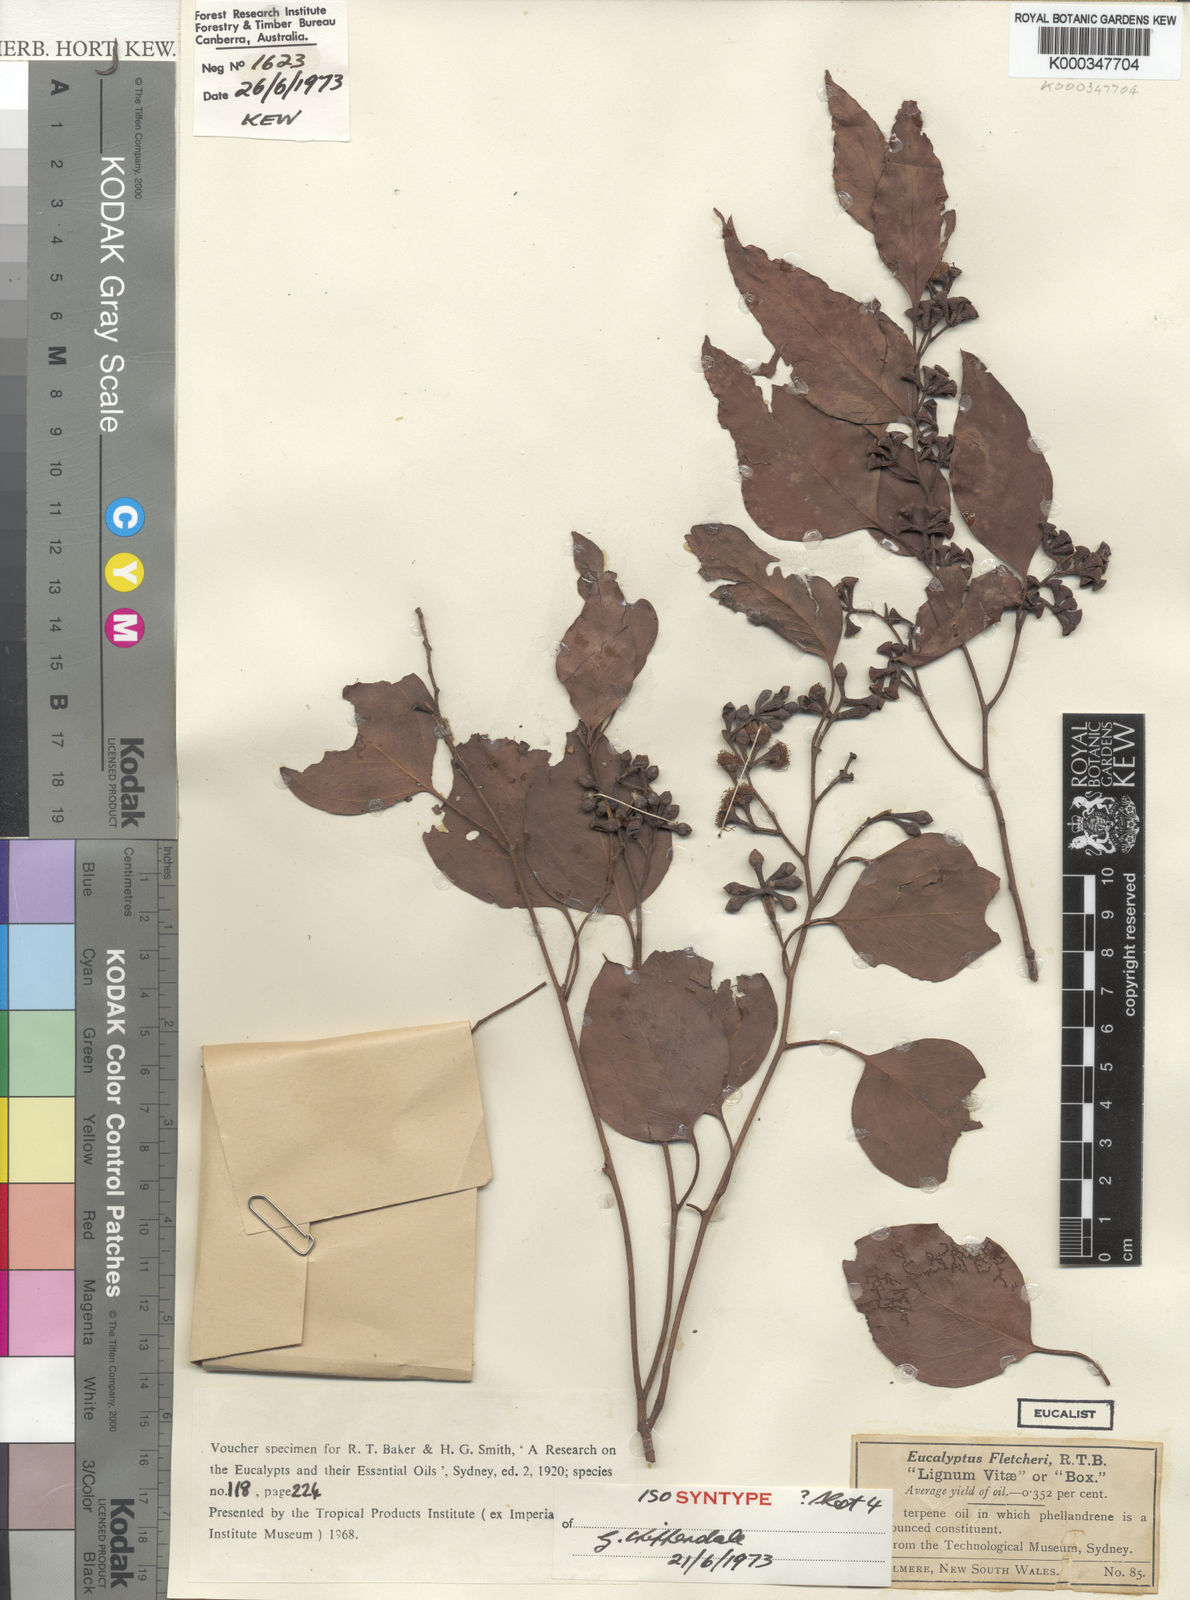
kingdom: Plantae
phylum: Tracheophyta
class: Magnoliopsida
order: Myrtales
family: Myrtaceae
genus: Eucalyptus
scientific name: Eucalyptus baueriana
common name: Round-leaf-box
